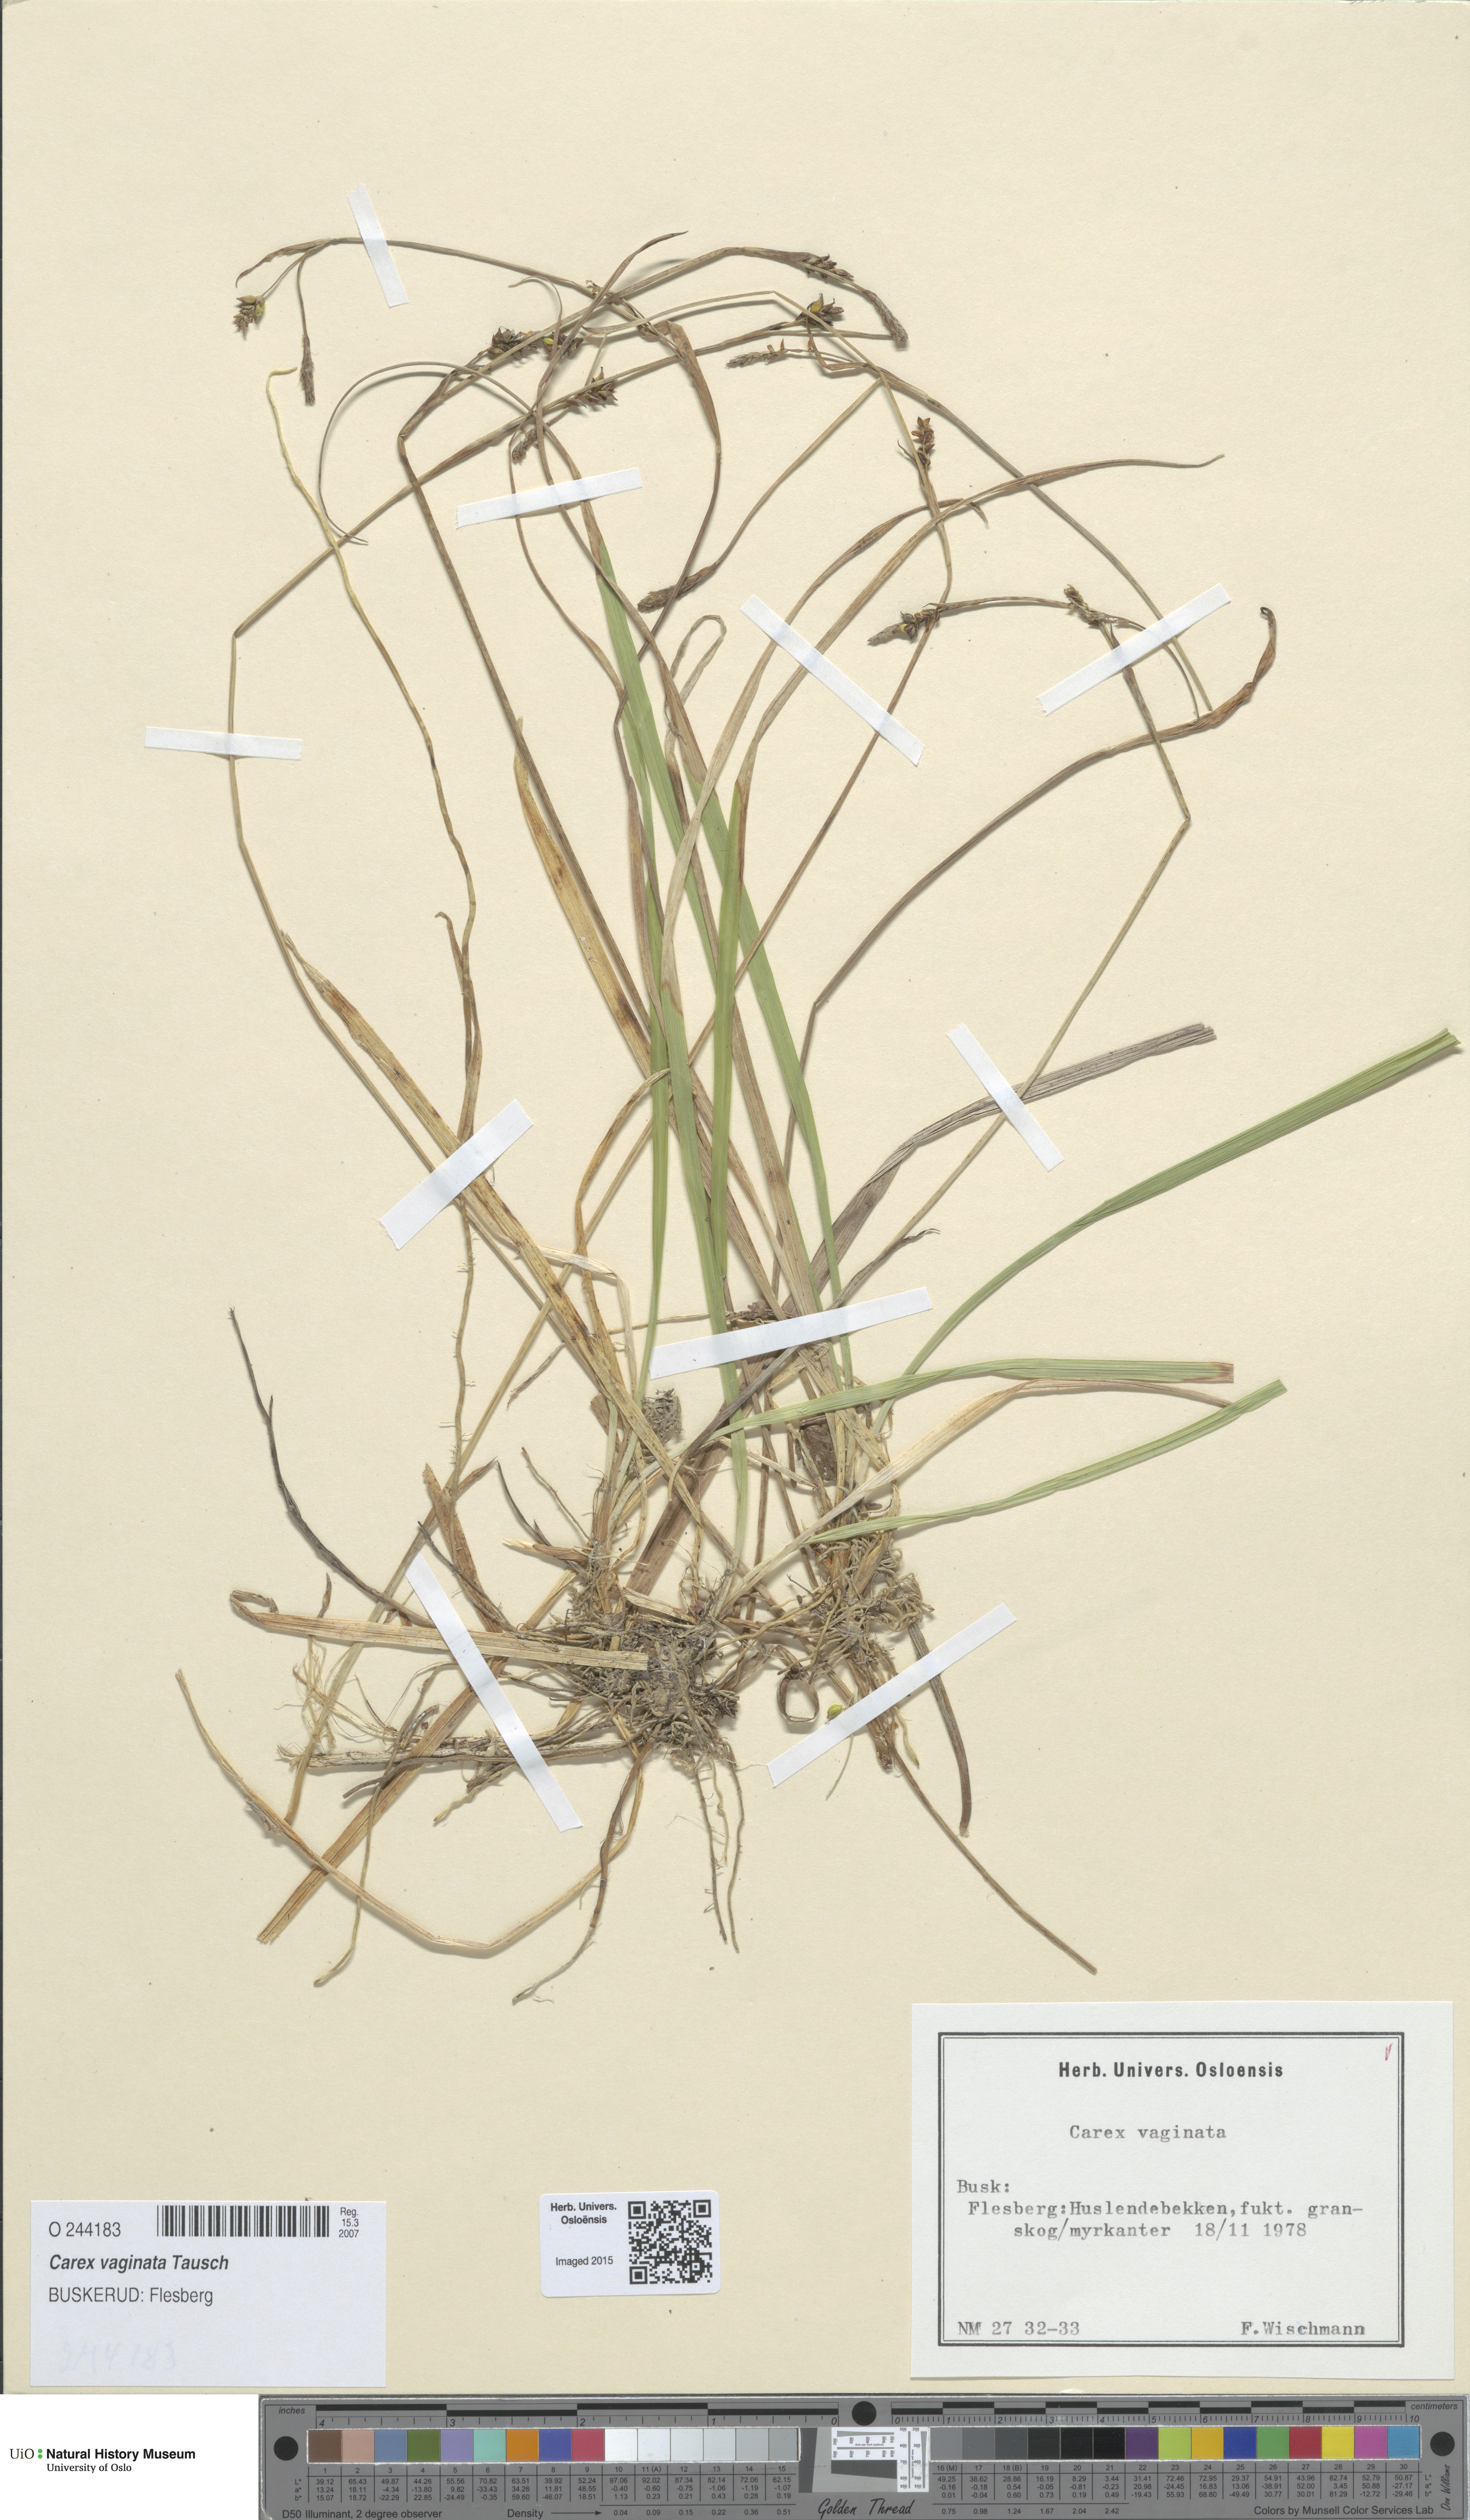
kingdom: Plantae
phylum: Tracheophyta
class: Liliopsida
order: Poales
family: Cyperaceae
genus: Carex
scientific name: Carex vaginata
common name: Sheathed sedge
